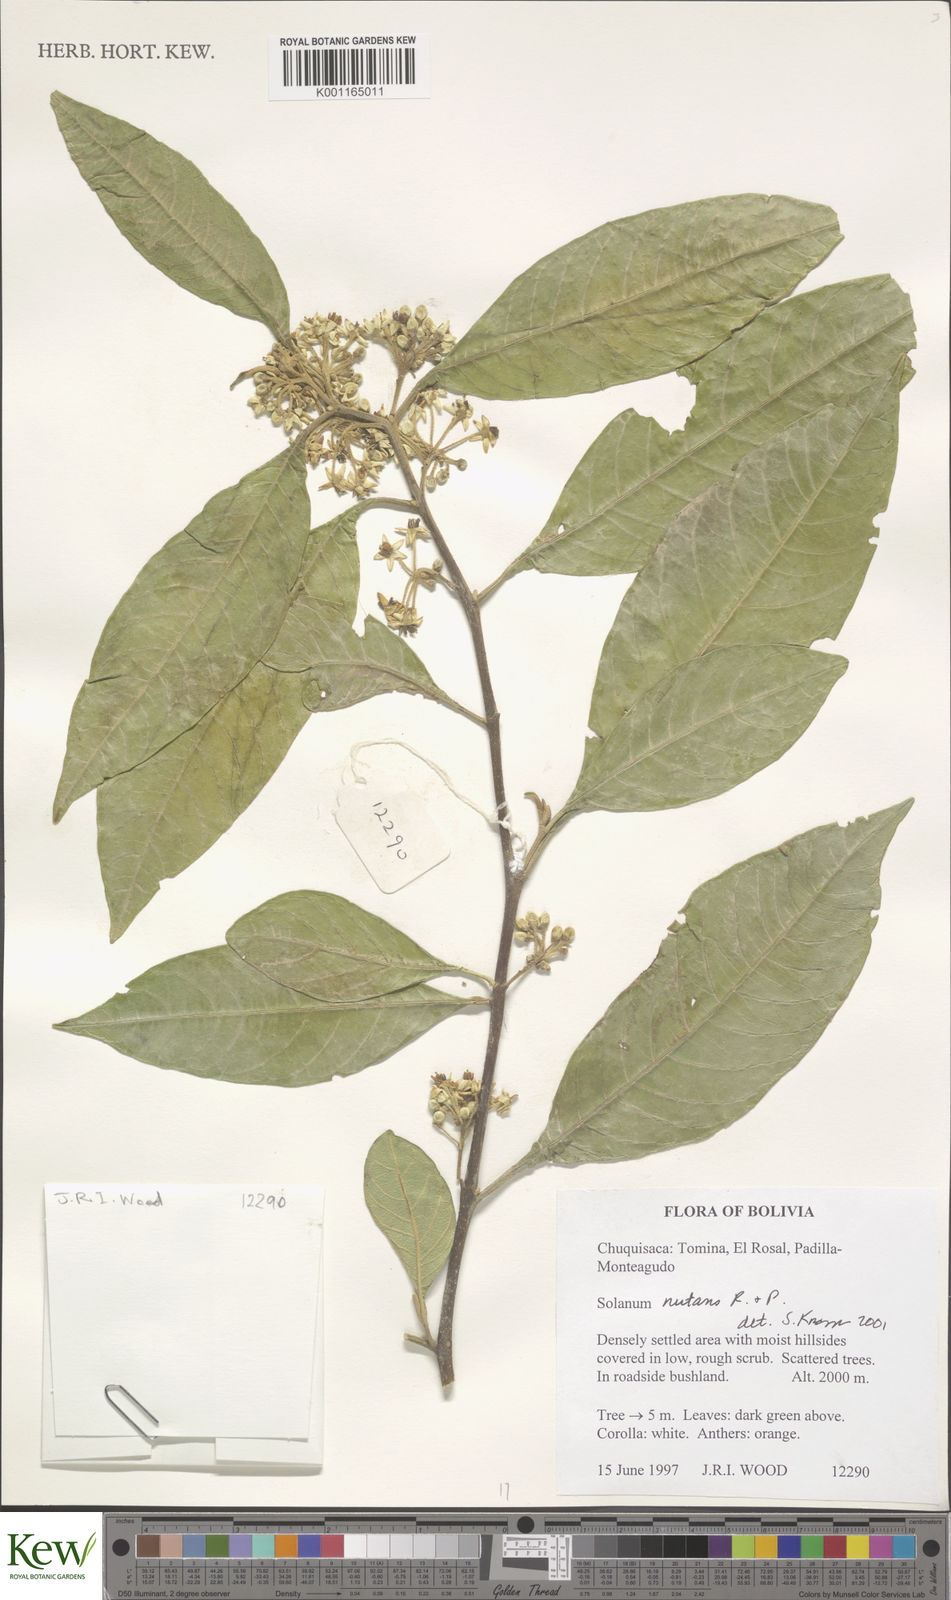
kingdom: Plantae
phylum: Tracheophyta
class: Magnoliopsida
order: Solanales
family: Solanaceae
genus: Solanum
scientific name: Solanum nutans
